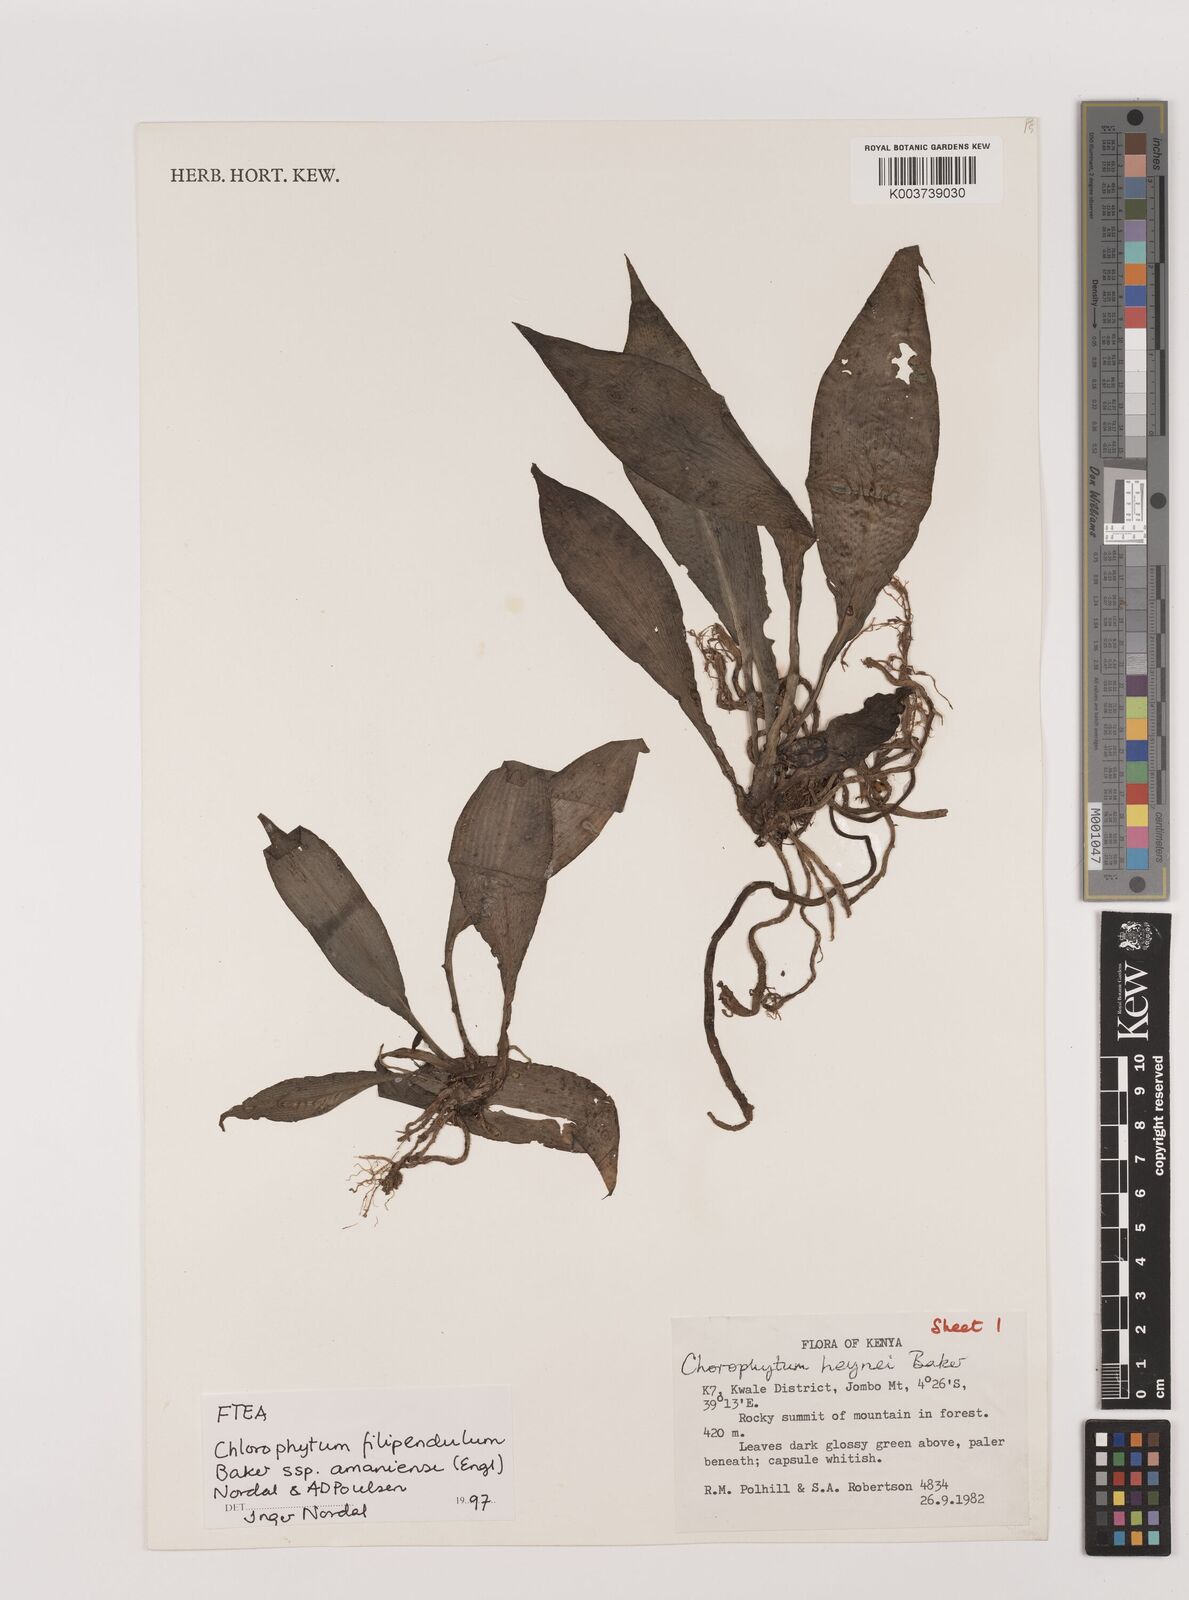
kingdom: Plantae
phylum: Tracheophyta
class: Liliopsida
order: Asparagales
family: Asparagaceae
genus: Chlorophytum
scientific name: Chlorophytum filipendulum
